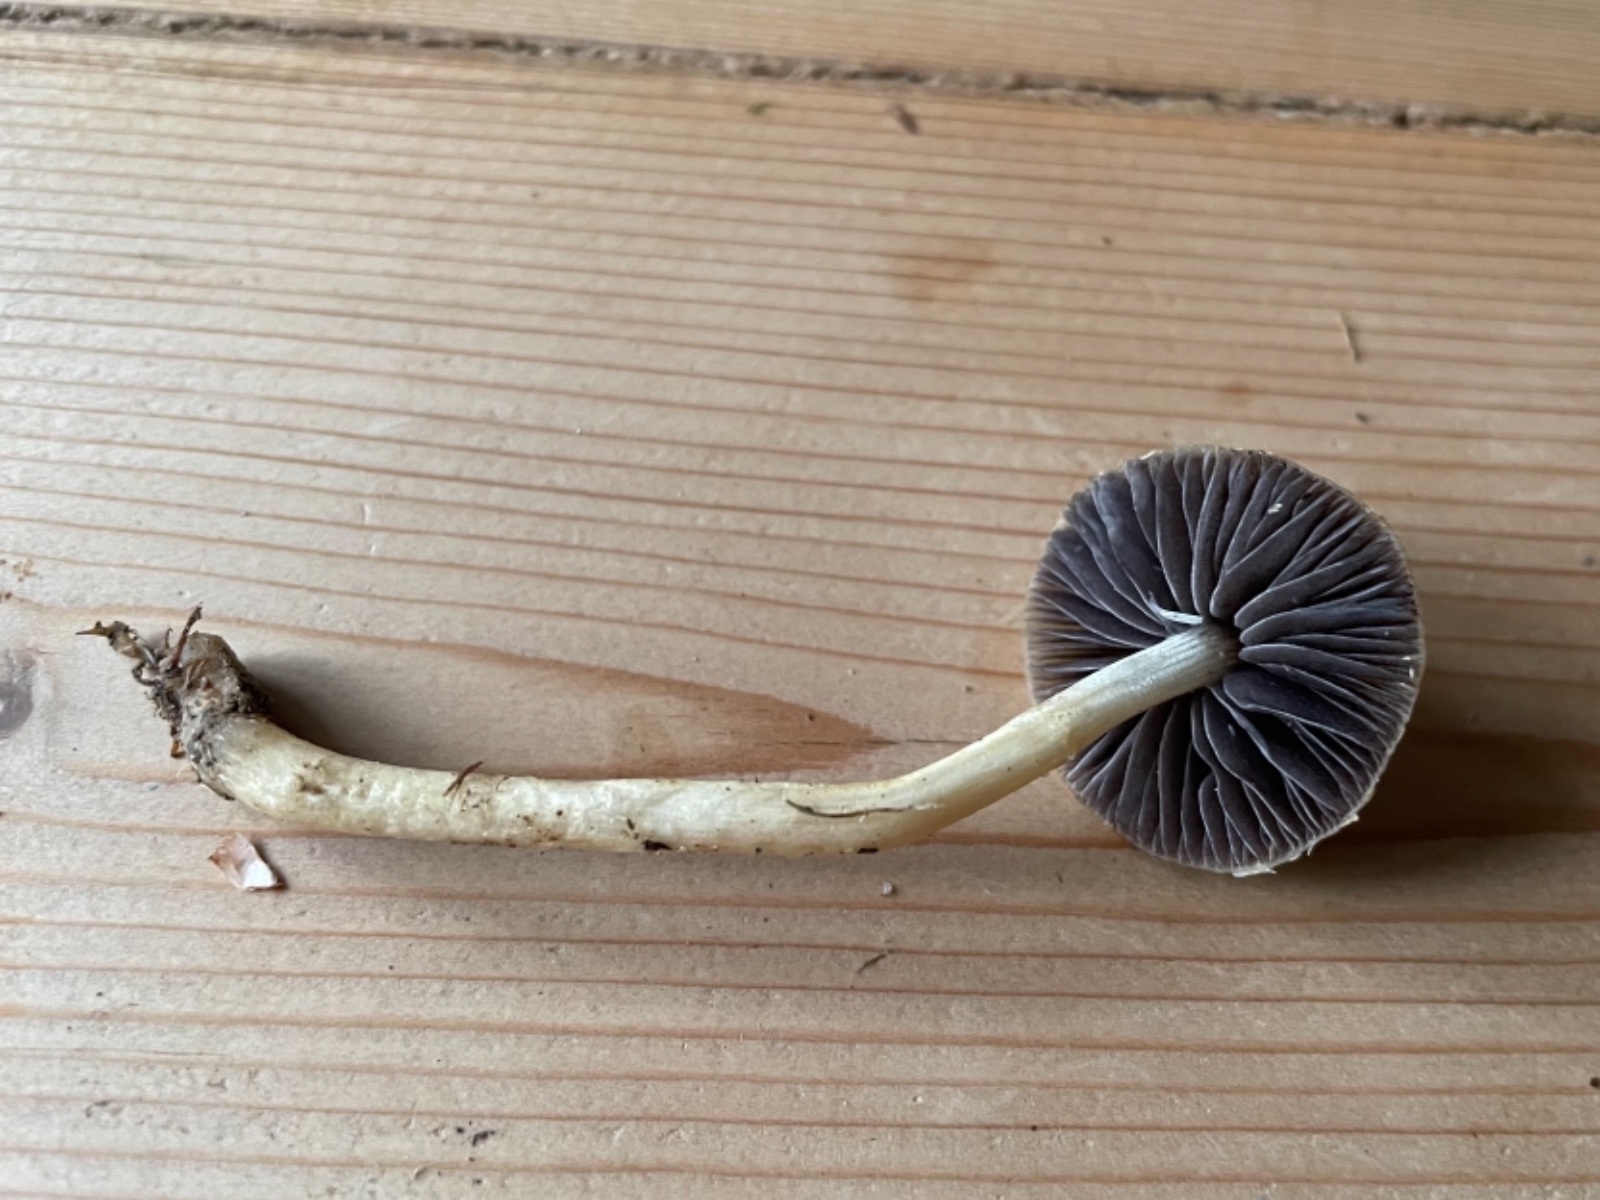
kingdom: Fungi
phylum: Basidiomycota
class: Agaricomycetes
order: Agaricales
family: Strophariaceae
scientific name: Strophariaceae
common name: bredbladfamilien
